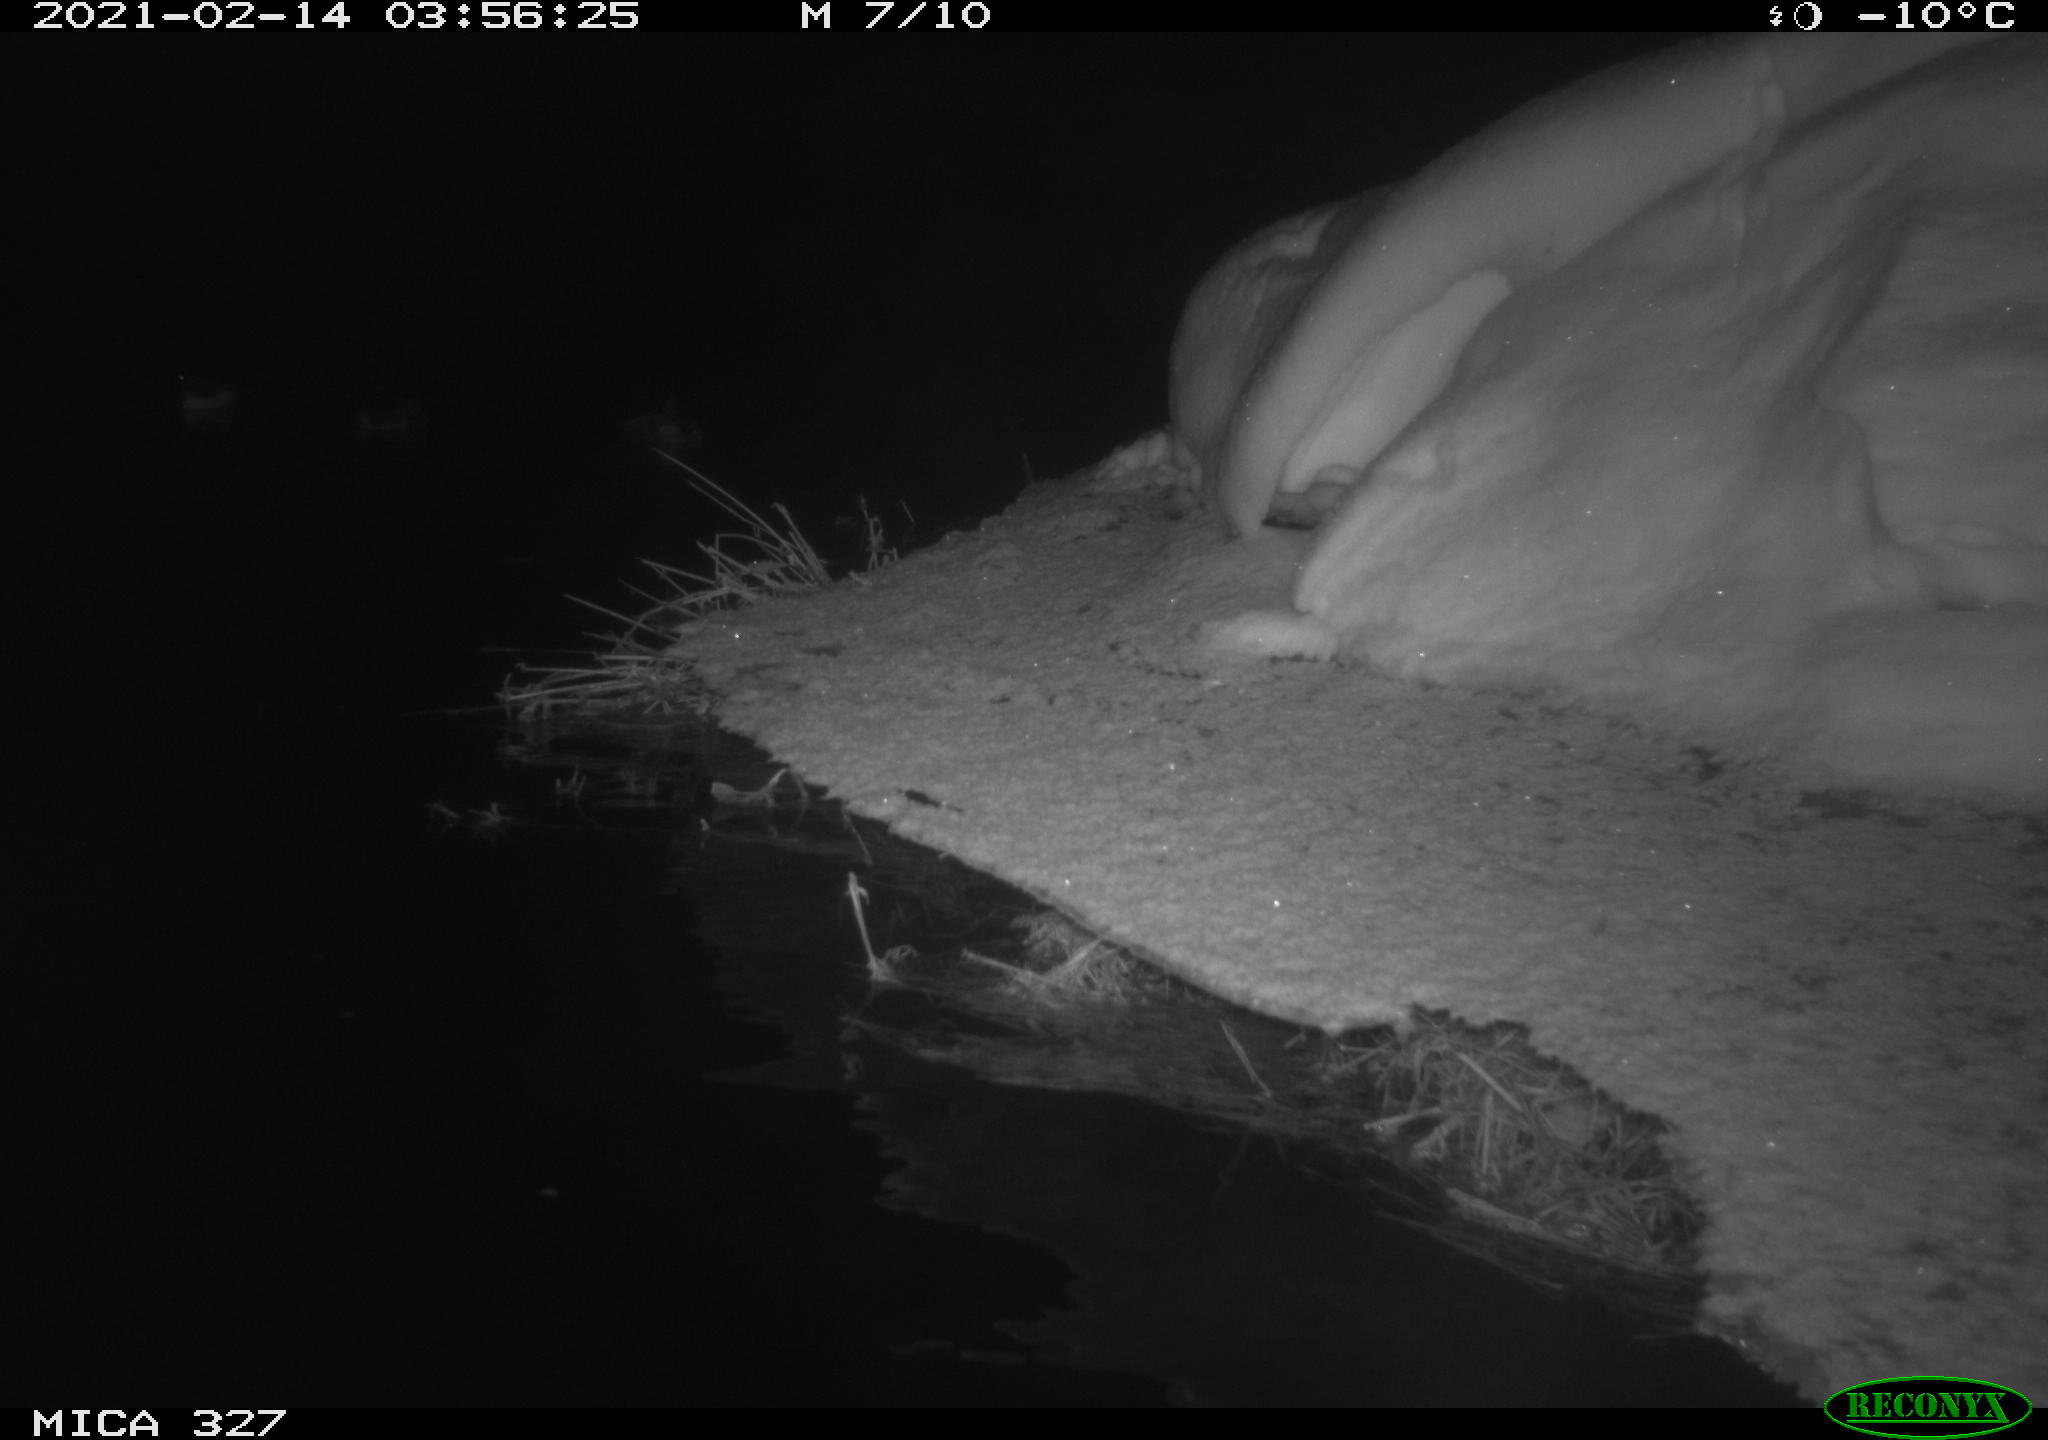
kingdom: Animalia
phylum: Chordata
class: Aves
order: Anseriformes
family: Anatidae
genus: Anas
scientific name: Anas
